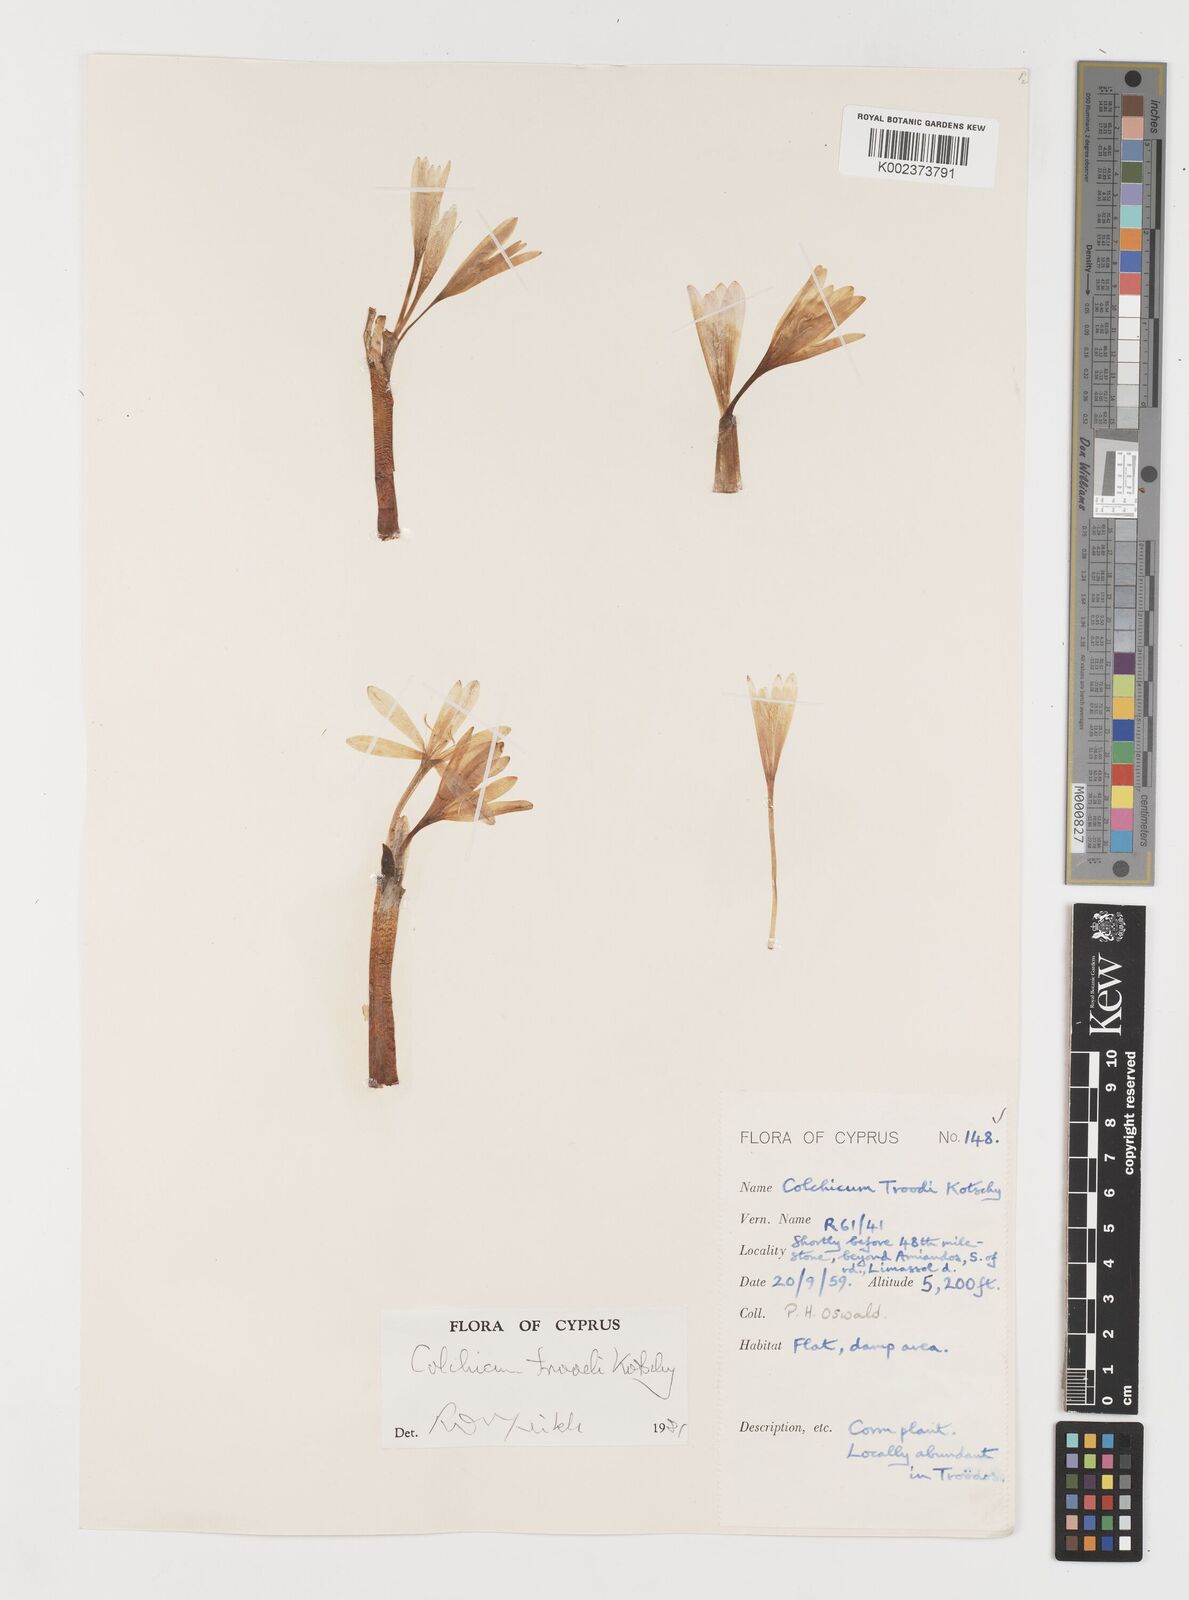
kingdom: Plantae
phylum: Tracheophyta
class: Liliopsida
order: Liliales
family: Colchicaceae
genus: Colchicum
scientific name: Colchicum troodi
